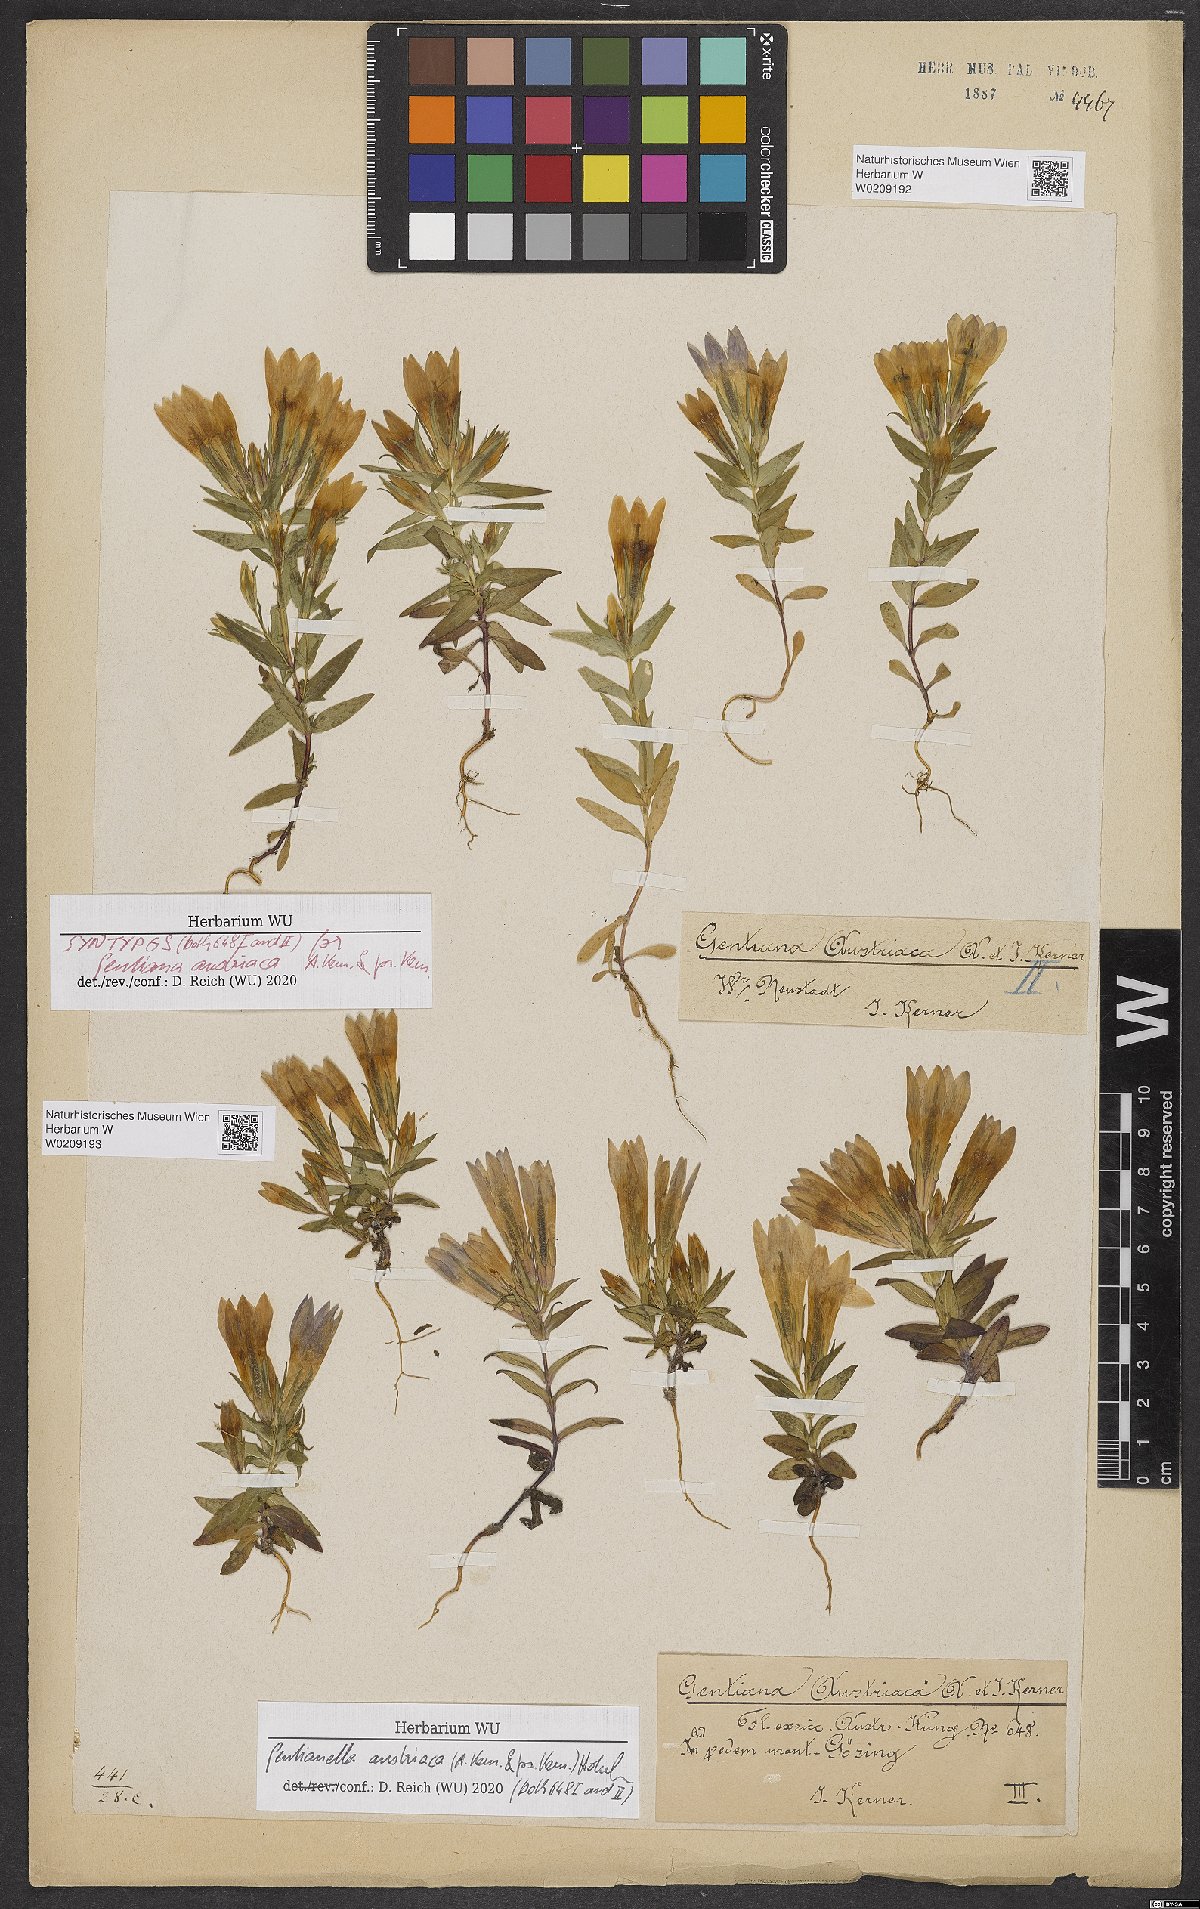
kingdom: Plantae
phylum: Tracheophyta
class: Magnoliopsida
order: Gentianales
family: Gentianaceae
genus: Gentianella
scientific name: Gentianella austriaca
